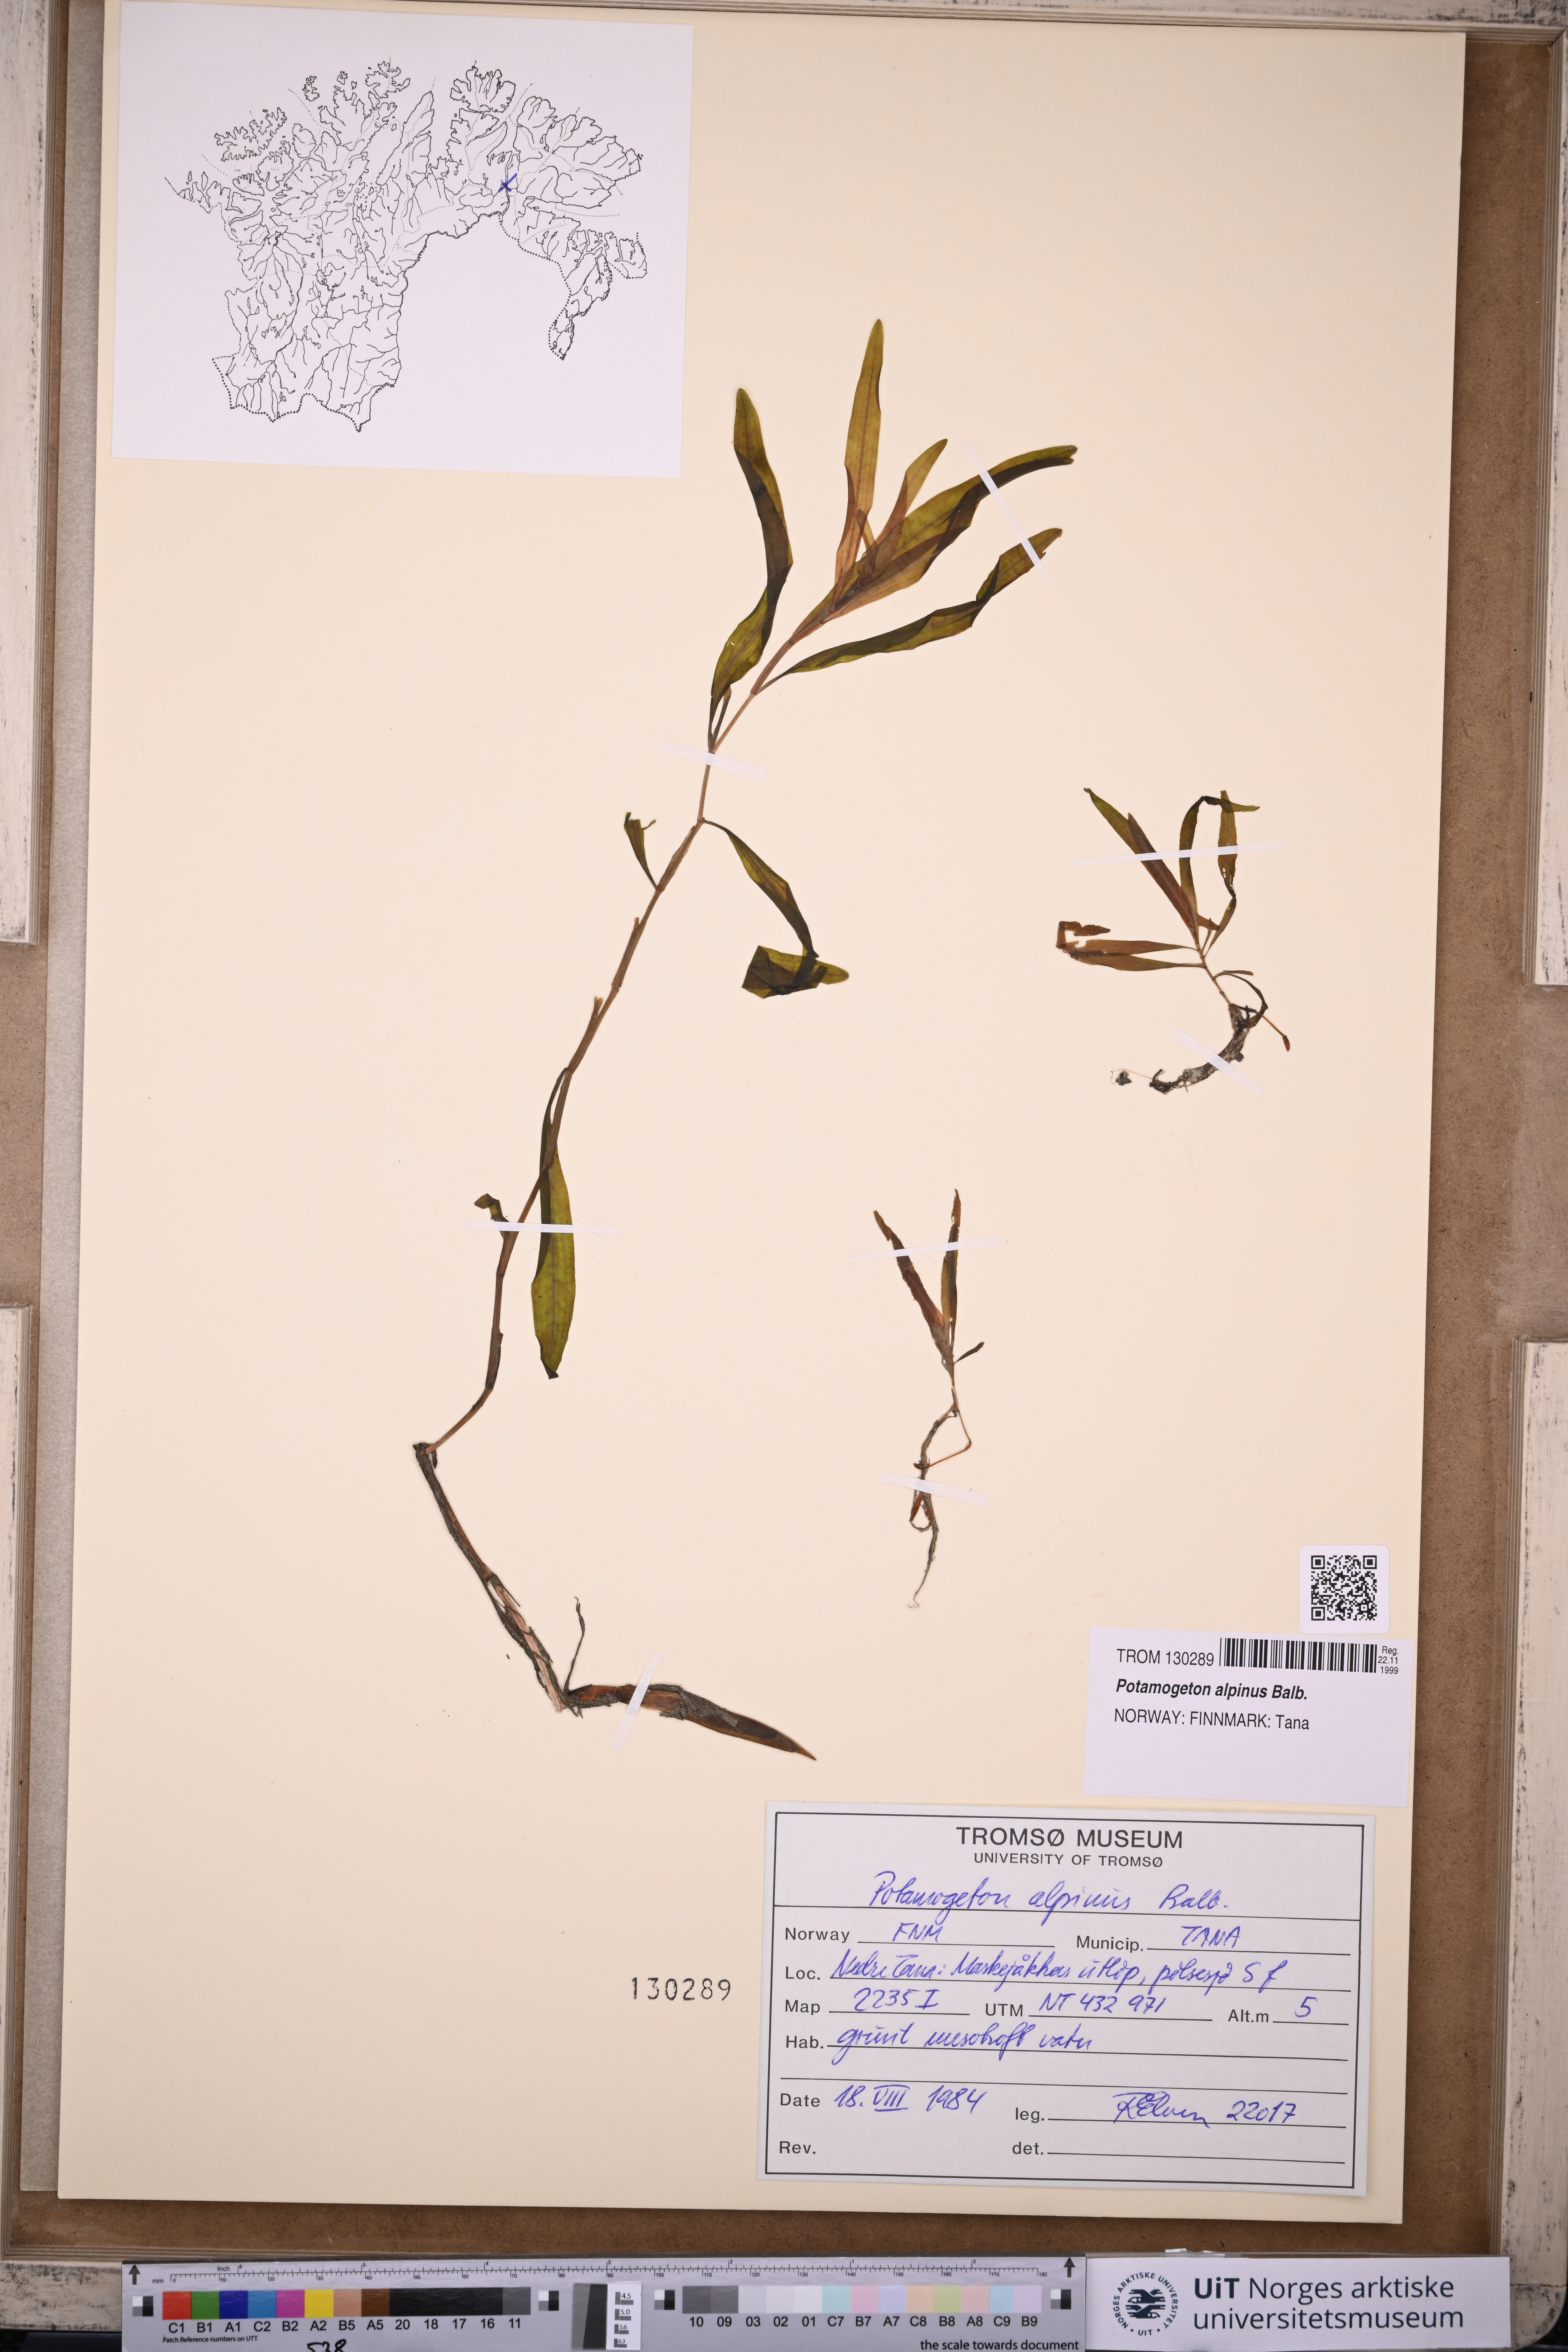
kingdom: Plantae
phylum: Tracheophyta
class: Liliopsida
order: Alismatales
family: Potamogetonaceae
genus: Potamogeton
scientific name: Potamogeton alpinus
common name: Red pondweed
